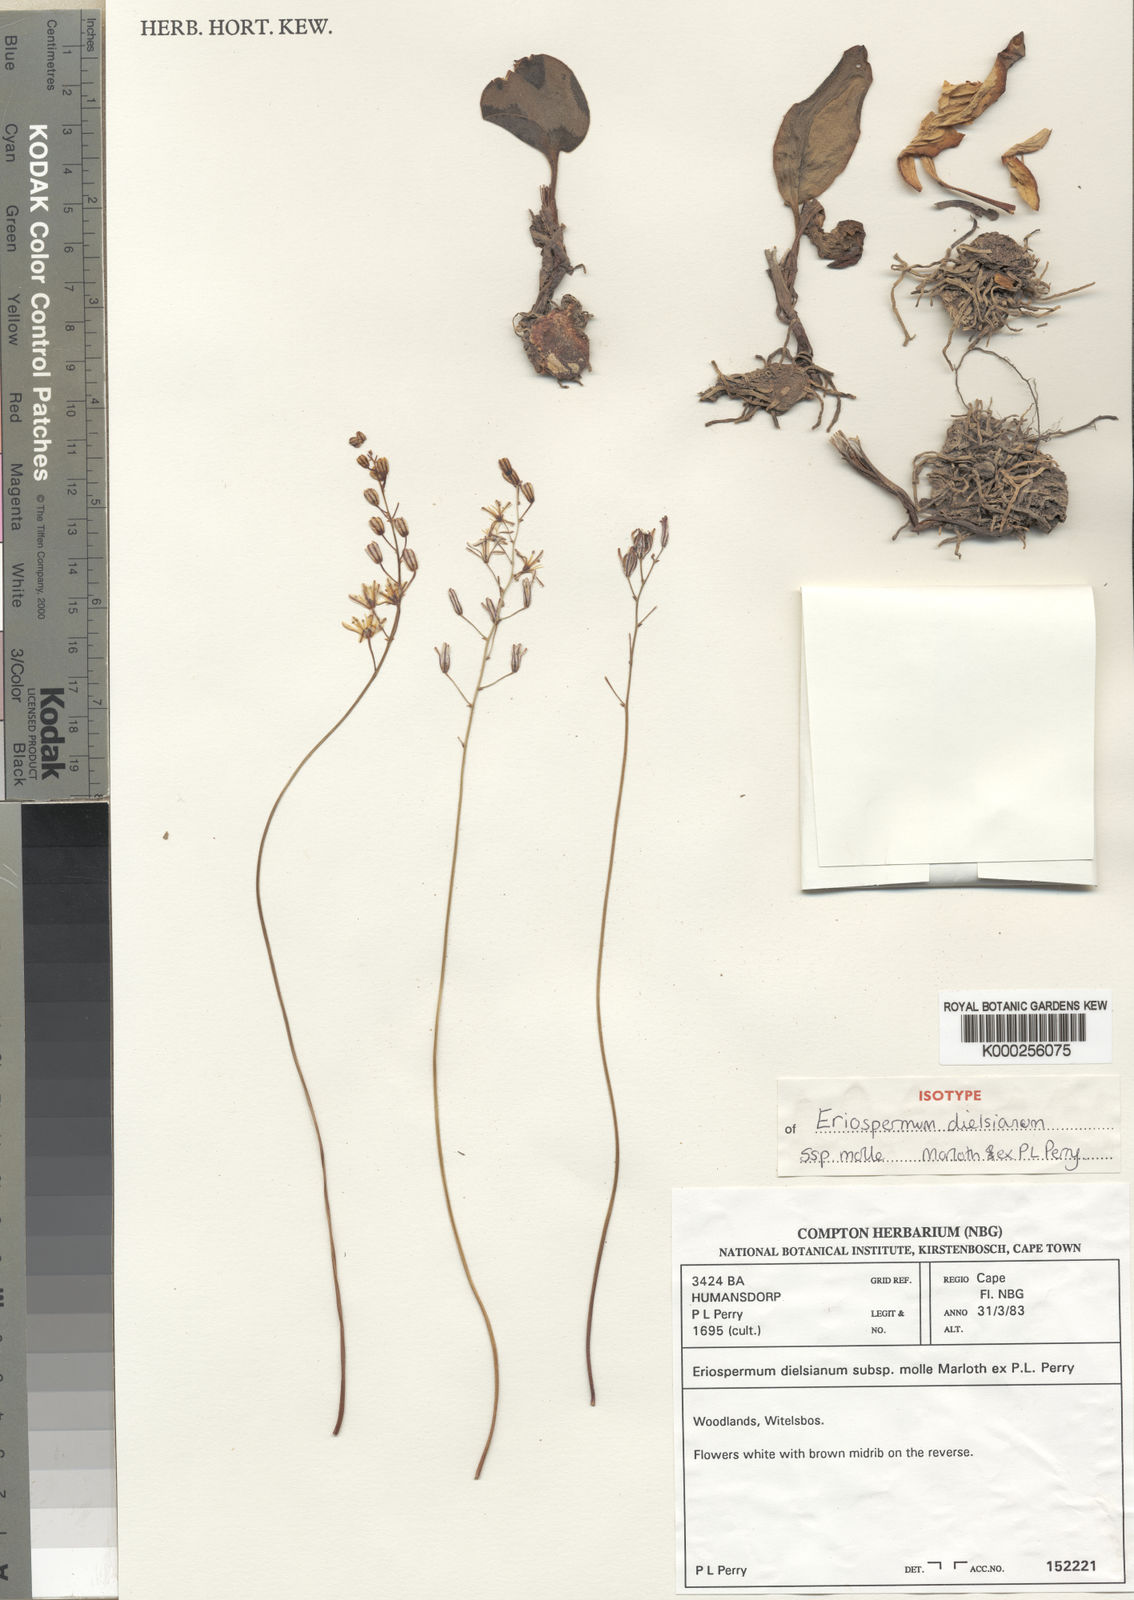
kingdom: Plantae
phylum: Tracheophyta
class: Liliopsida
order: Asparagales
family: Asparagaceae
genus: Eriospermum
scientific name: Eriospermum dielsianum
